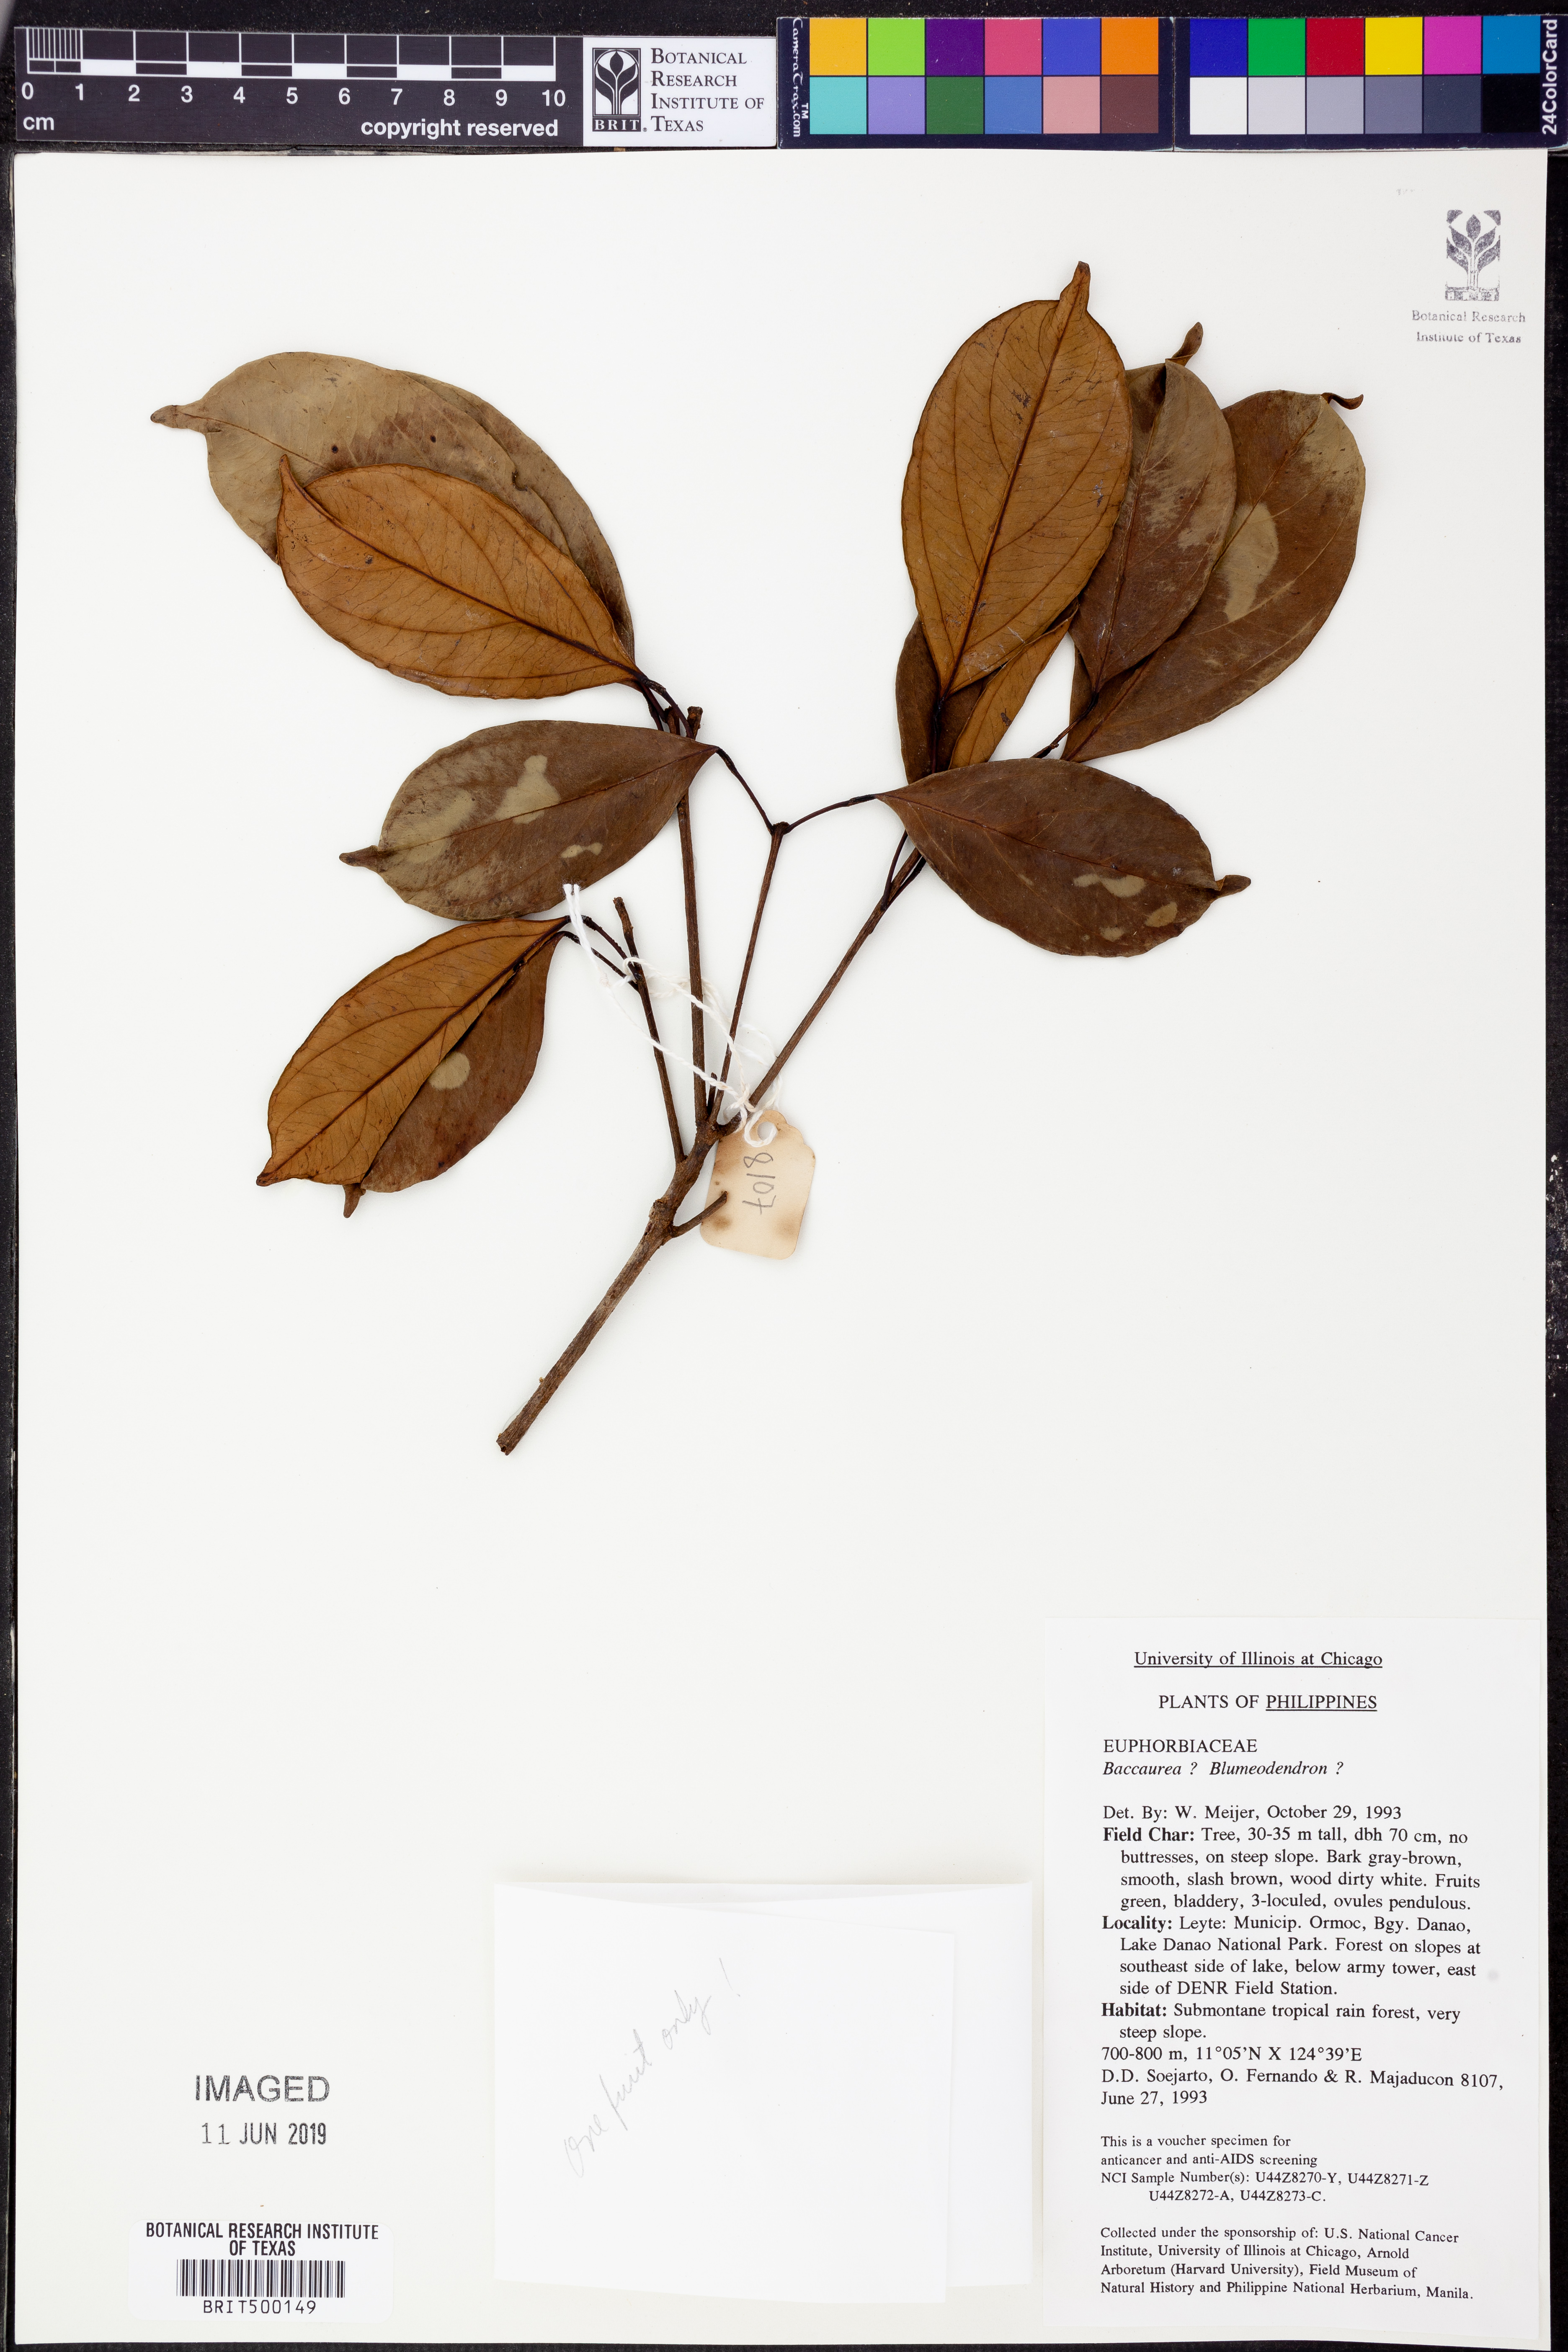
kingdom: Plantae
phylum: Tracheophyta
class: Magnoliopsida
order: Malpighiales
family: Euphorbiaceae
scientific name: Euphorbiaceae
